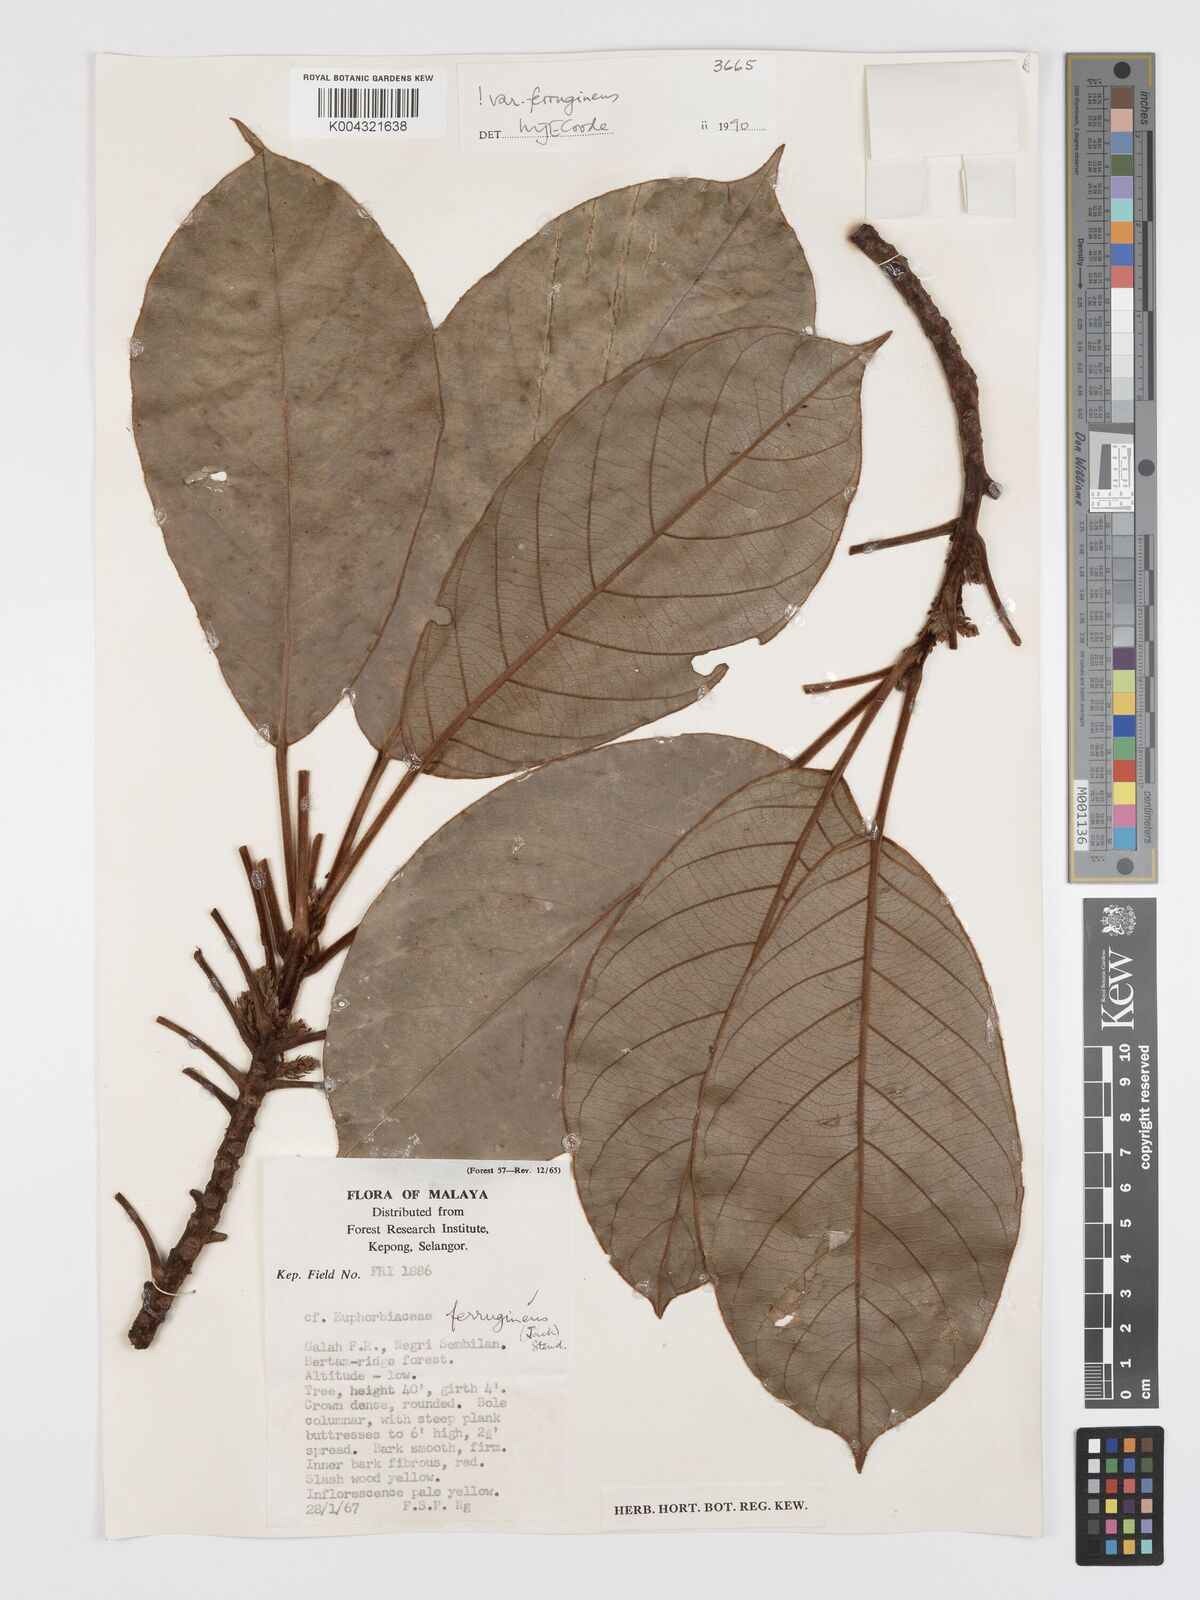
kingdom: Plantae
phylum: Tracheophyta
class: Magnoliopsida
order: Oxalidales
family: Elaeocarpaceae
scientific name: Elaeocarpaceae
